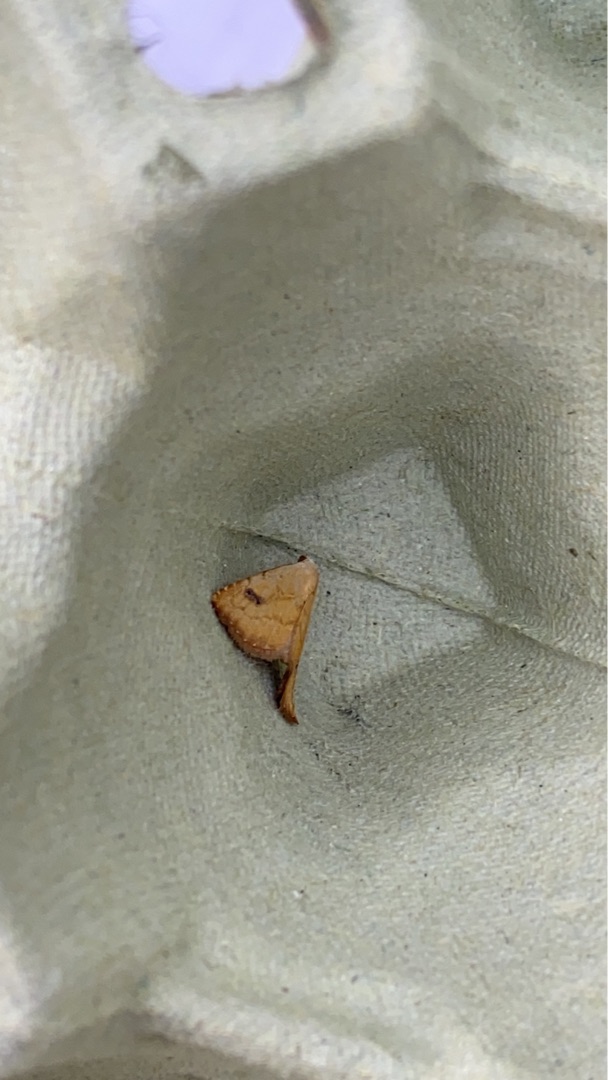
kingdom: Animalia
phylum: Arthropoda
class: Insecta
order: Lepidoptera
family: Erebidae
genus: Rivula
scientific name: Rivula sericealis
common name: Lille å-ugle
